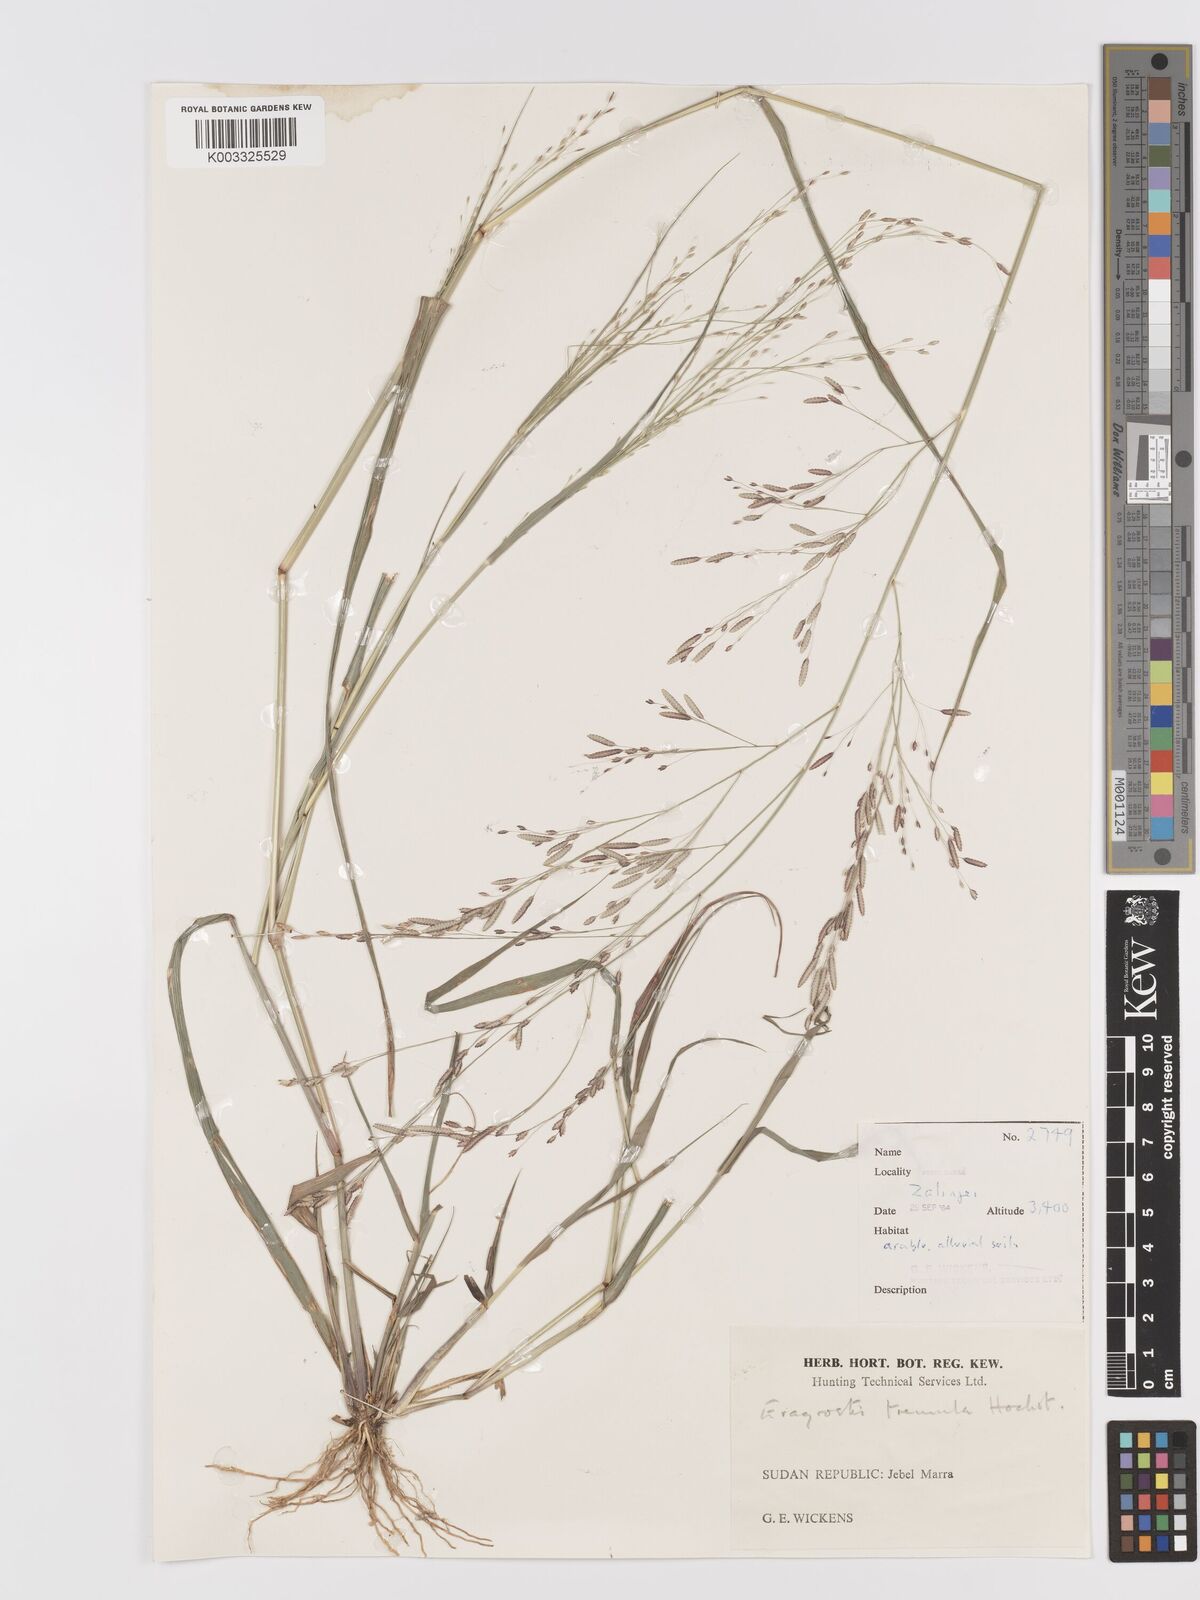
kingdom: Plantae
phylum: Tracheophyta
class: Liliopsida
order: Poales
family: Poaceae
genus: Eragrostis
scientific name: Eragrostis tremula
